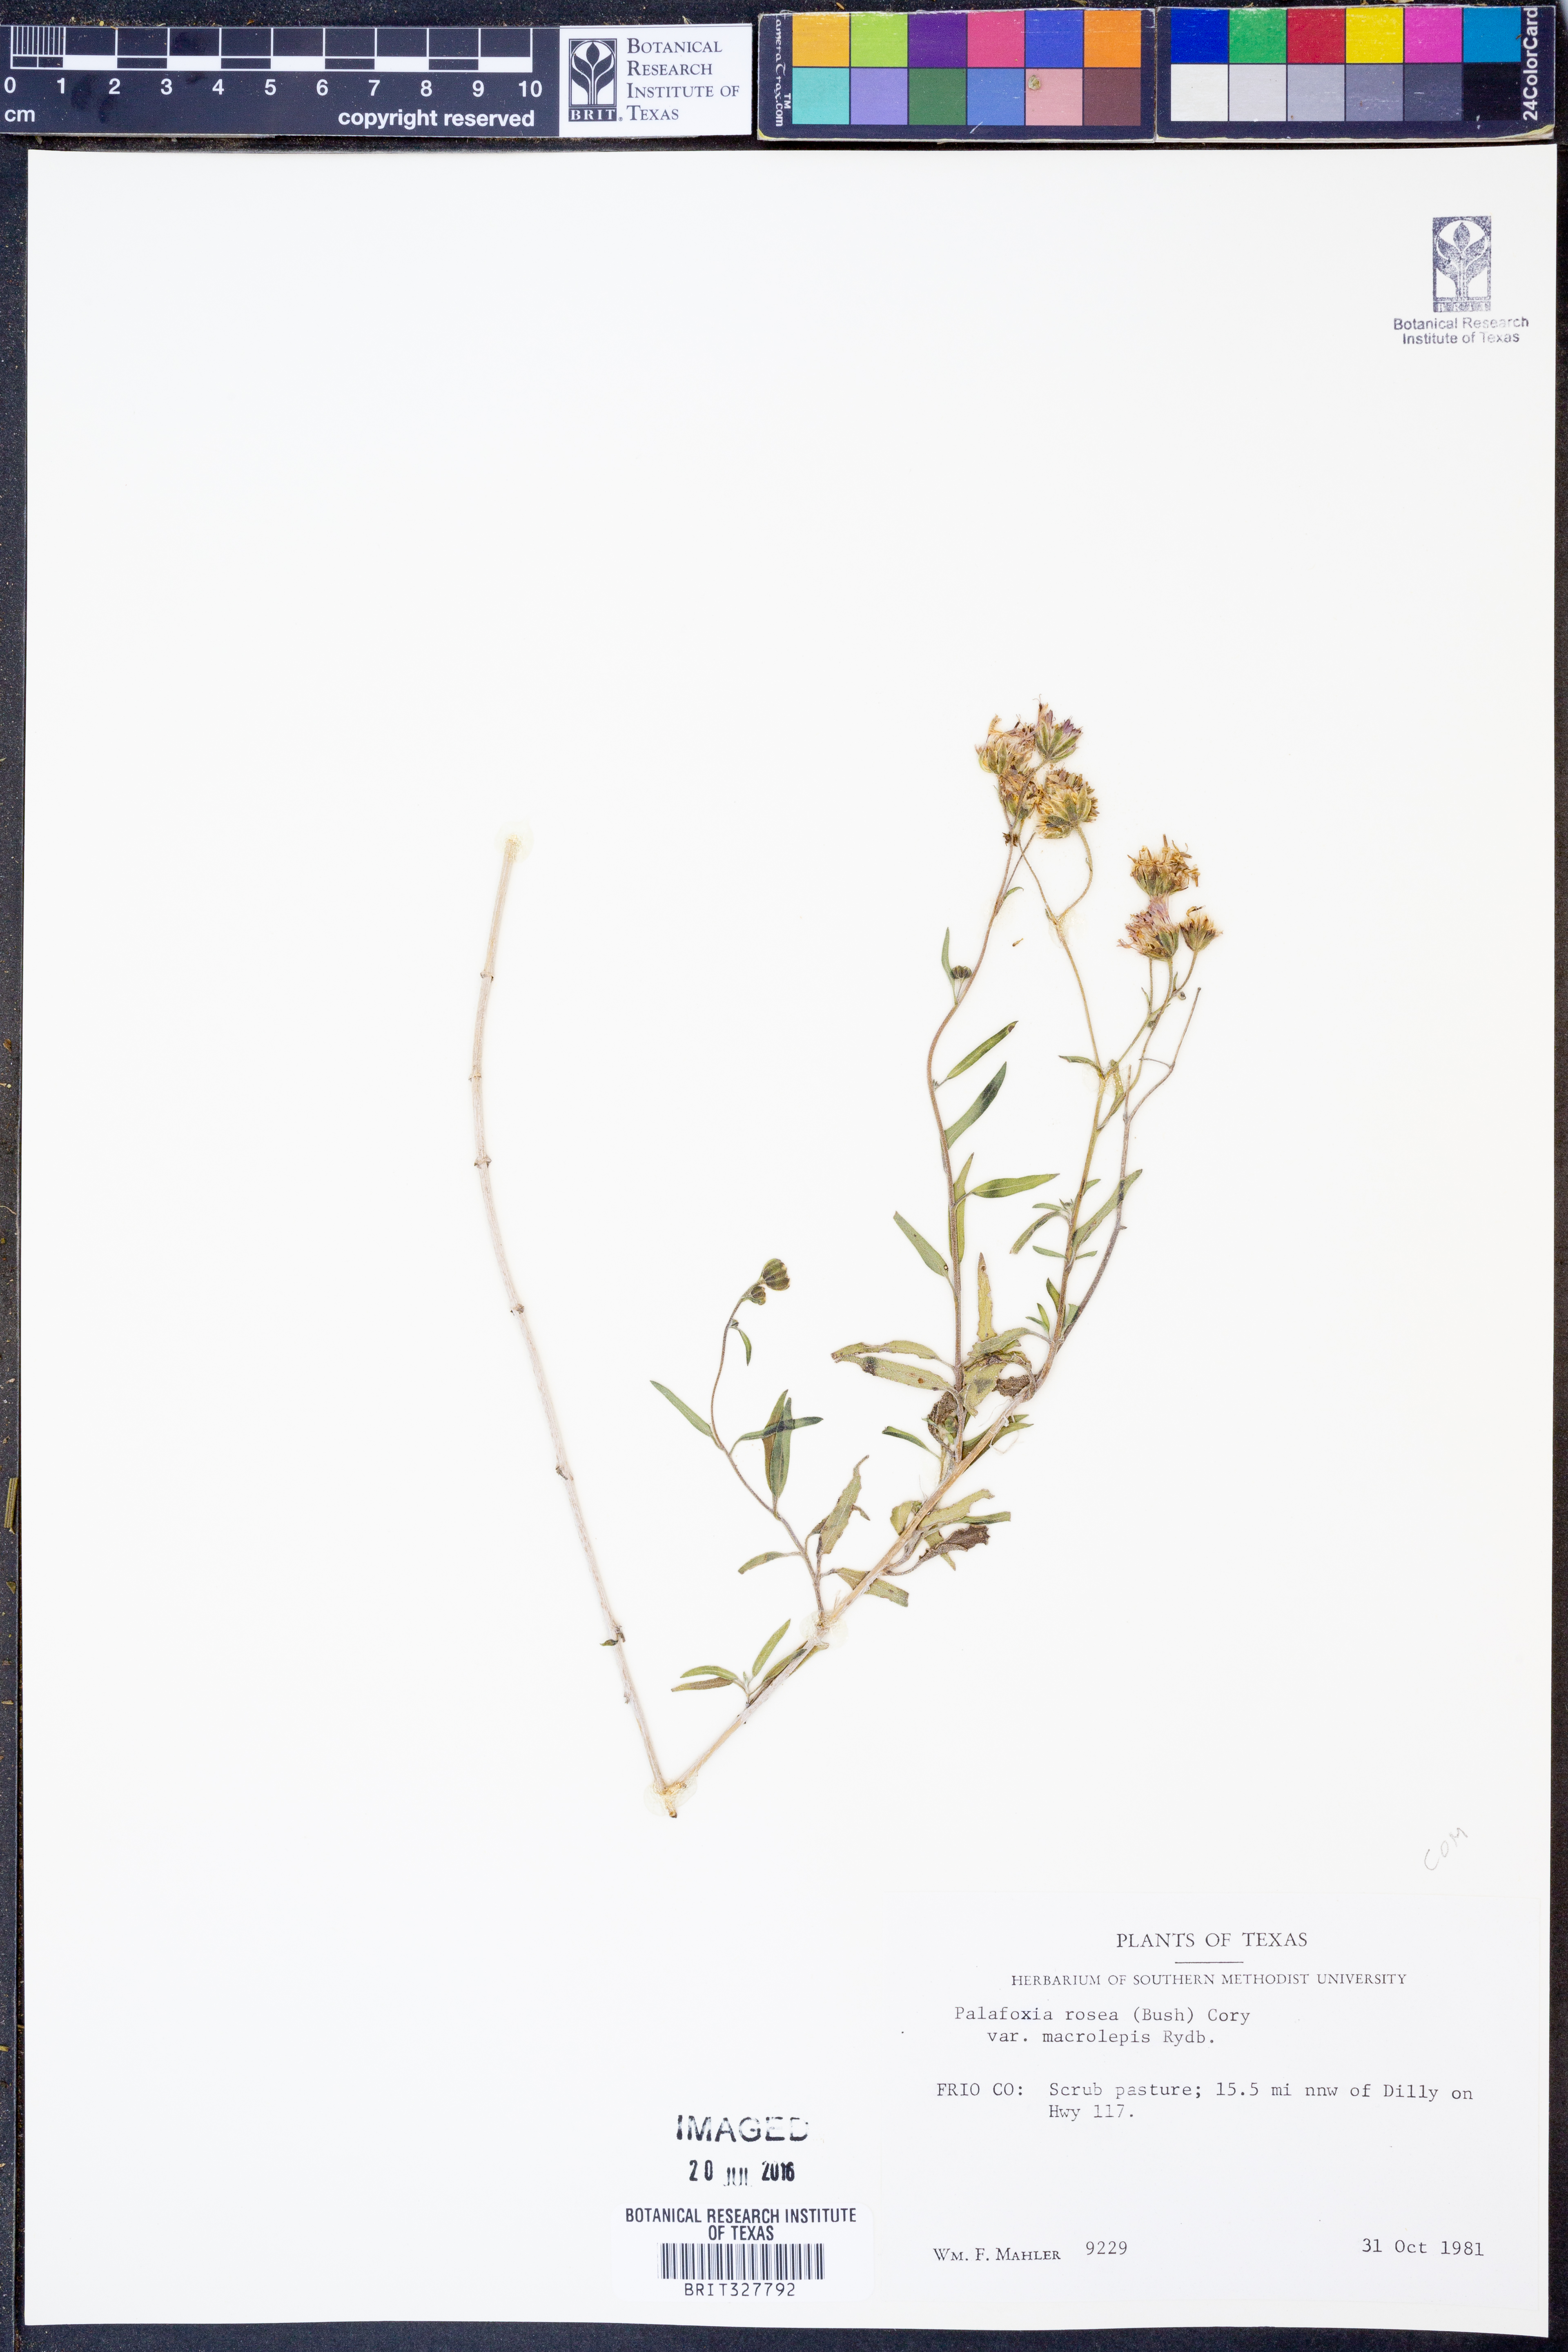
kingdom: Plantae
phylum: Tracheophyta
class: Magnoliopsida
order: Asterales
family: Asteraceae
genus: Palafoxia
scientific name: Palafoxia rosea
